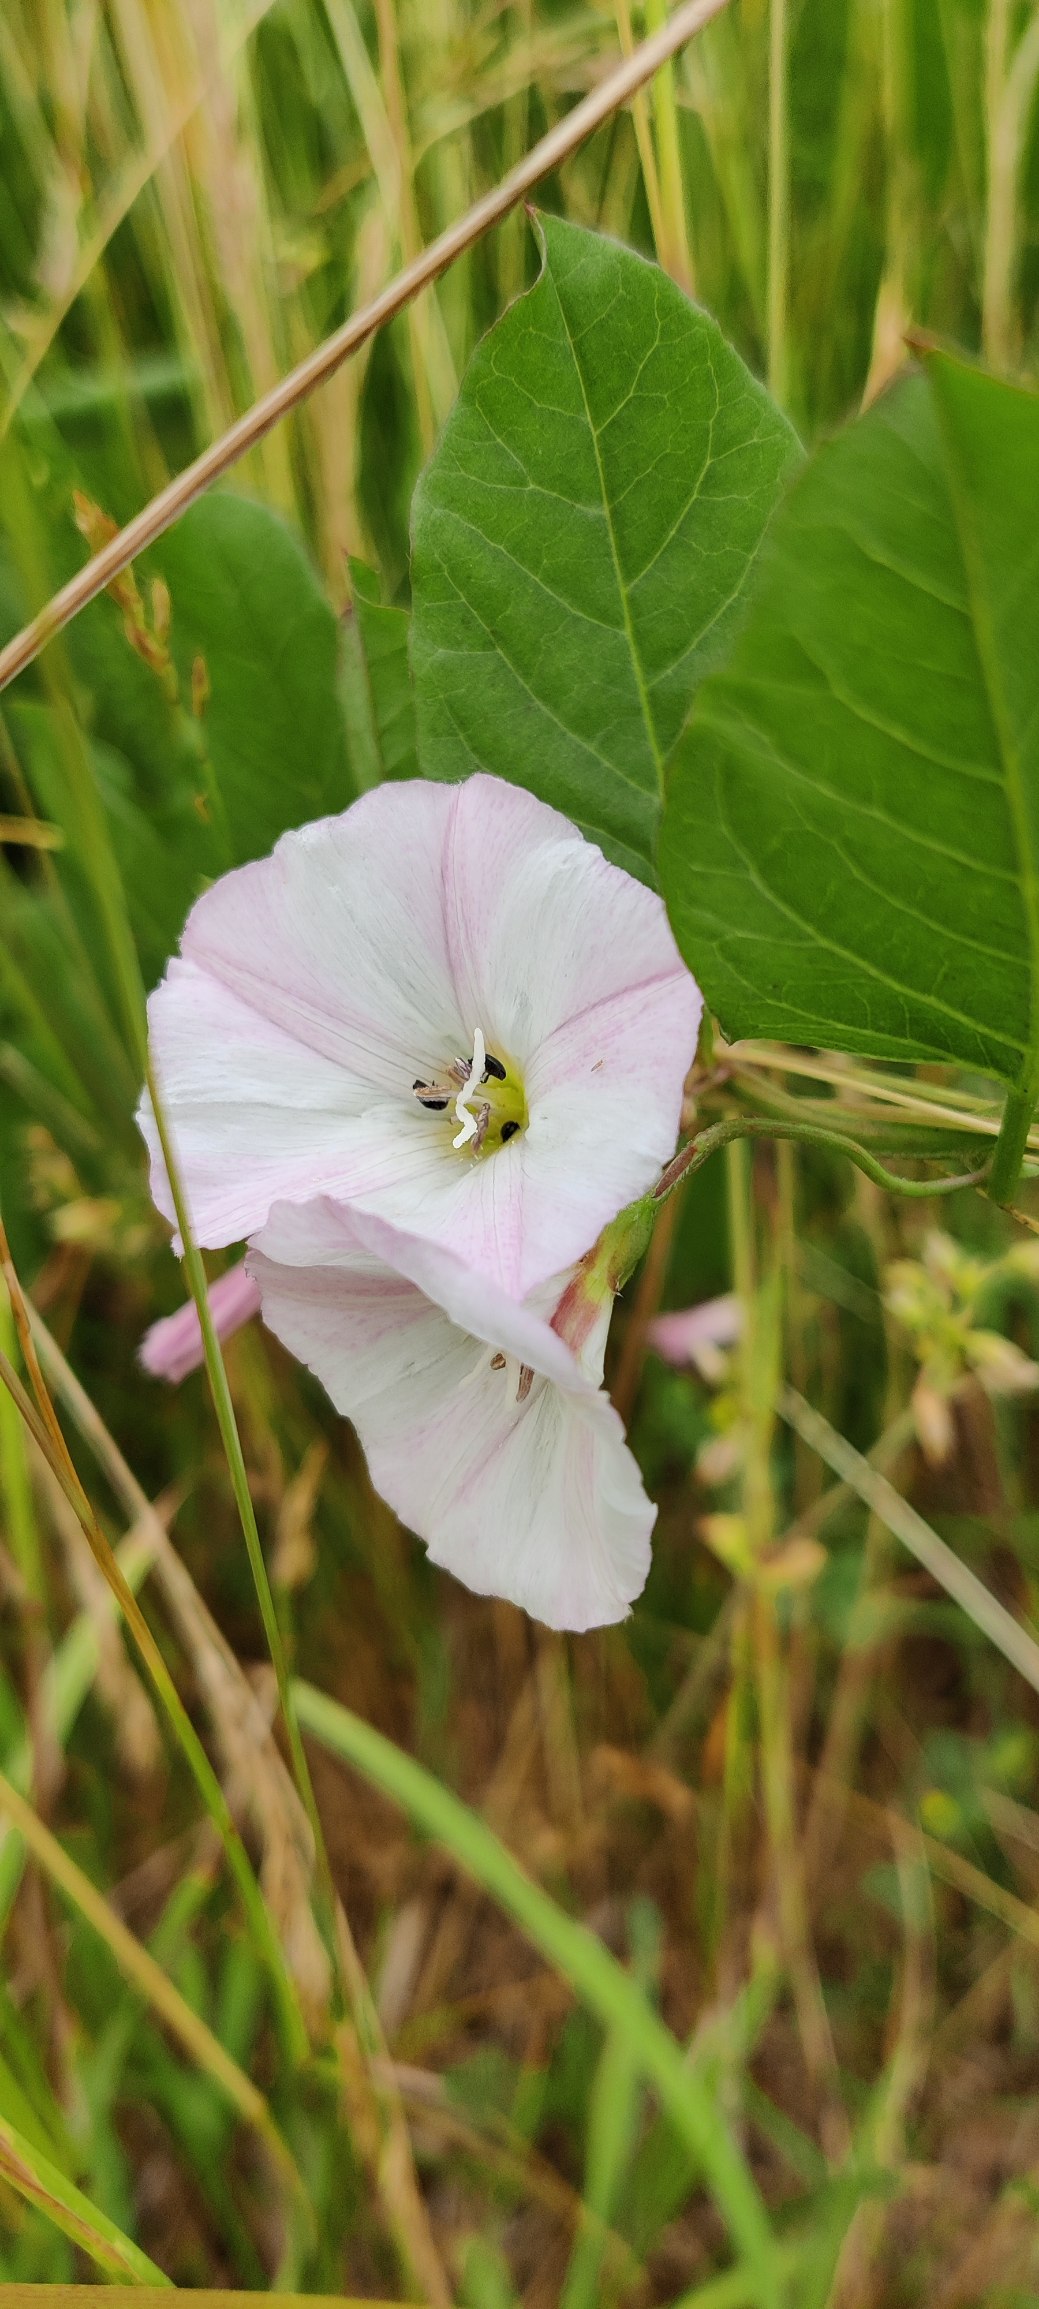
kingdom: Plantae
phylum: Tracheophyta
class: Magnoliopsida
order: Solanales
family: Convolvulaceae
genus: Convolvulus
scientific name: Convolvulus arvensis
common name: Ager-snerle
